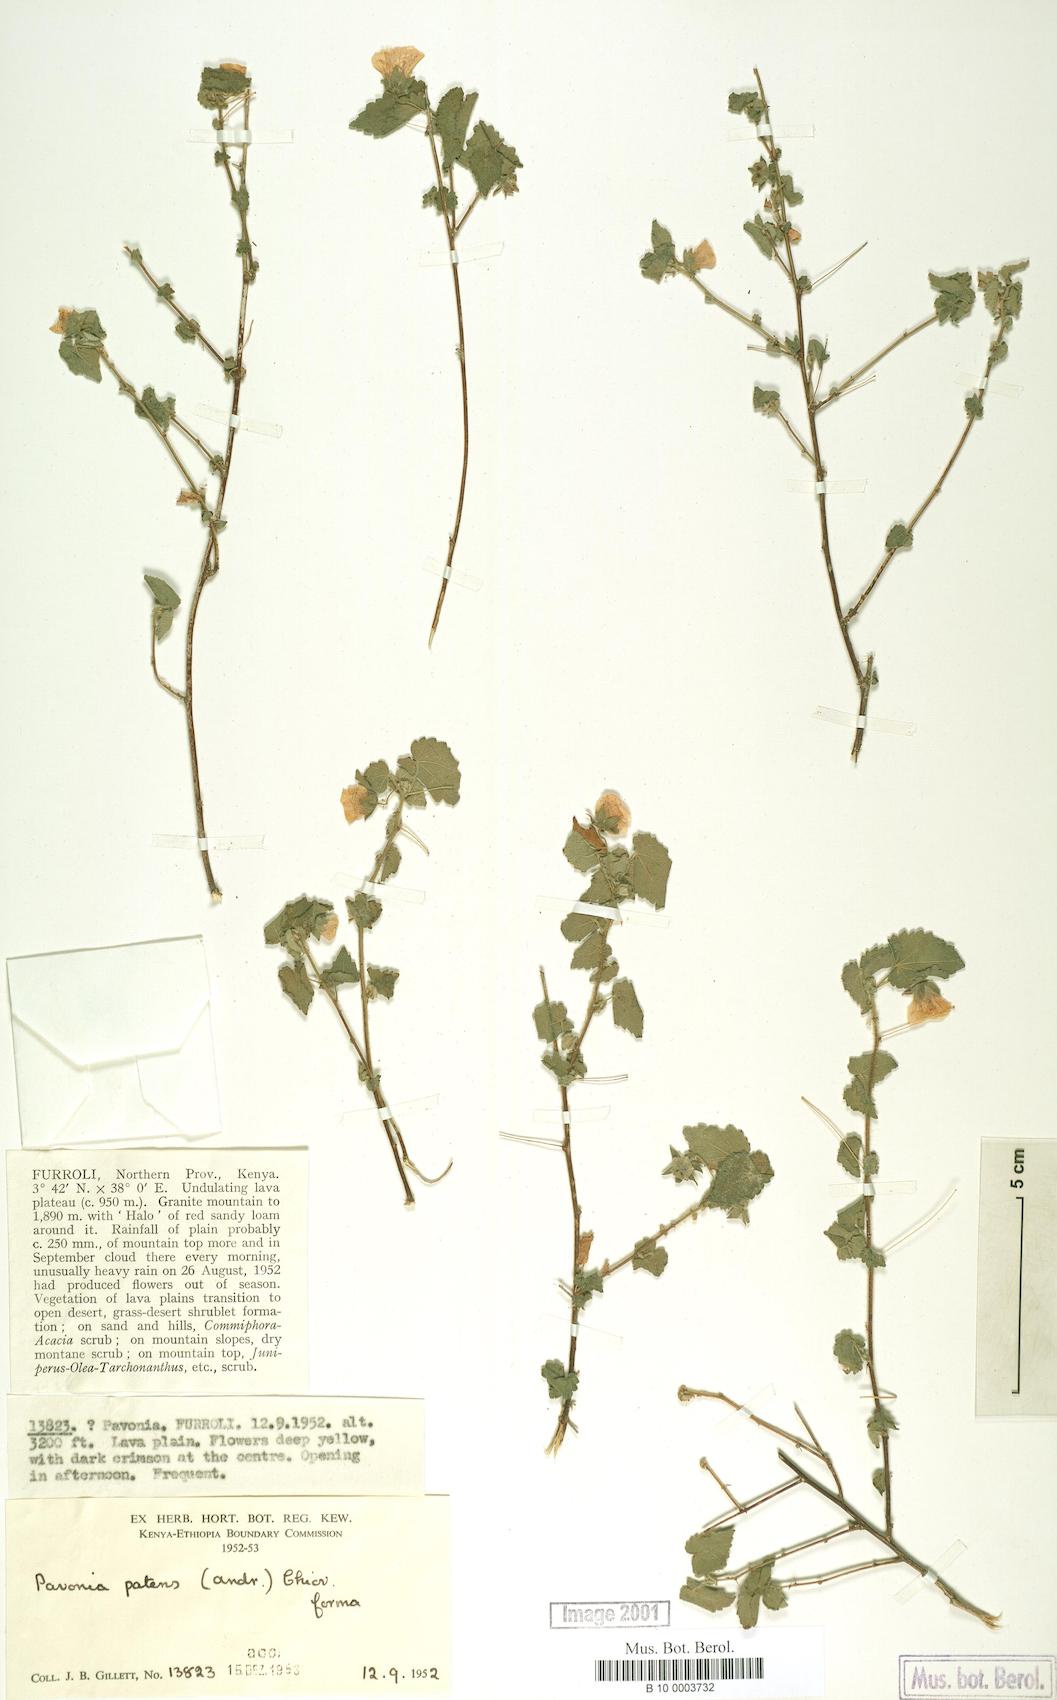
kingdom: Plantae
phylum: Tracheophyta
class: Magnoliopsida
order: Malvales
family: Malvaceae
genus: Abutilon
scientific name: Abutilon mauritianum
